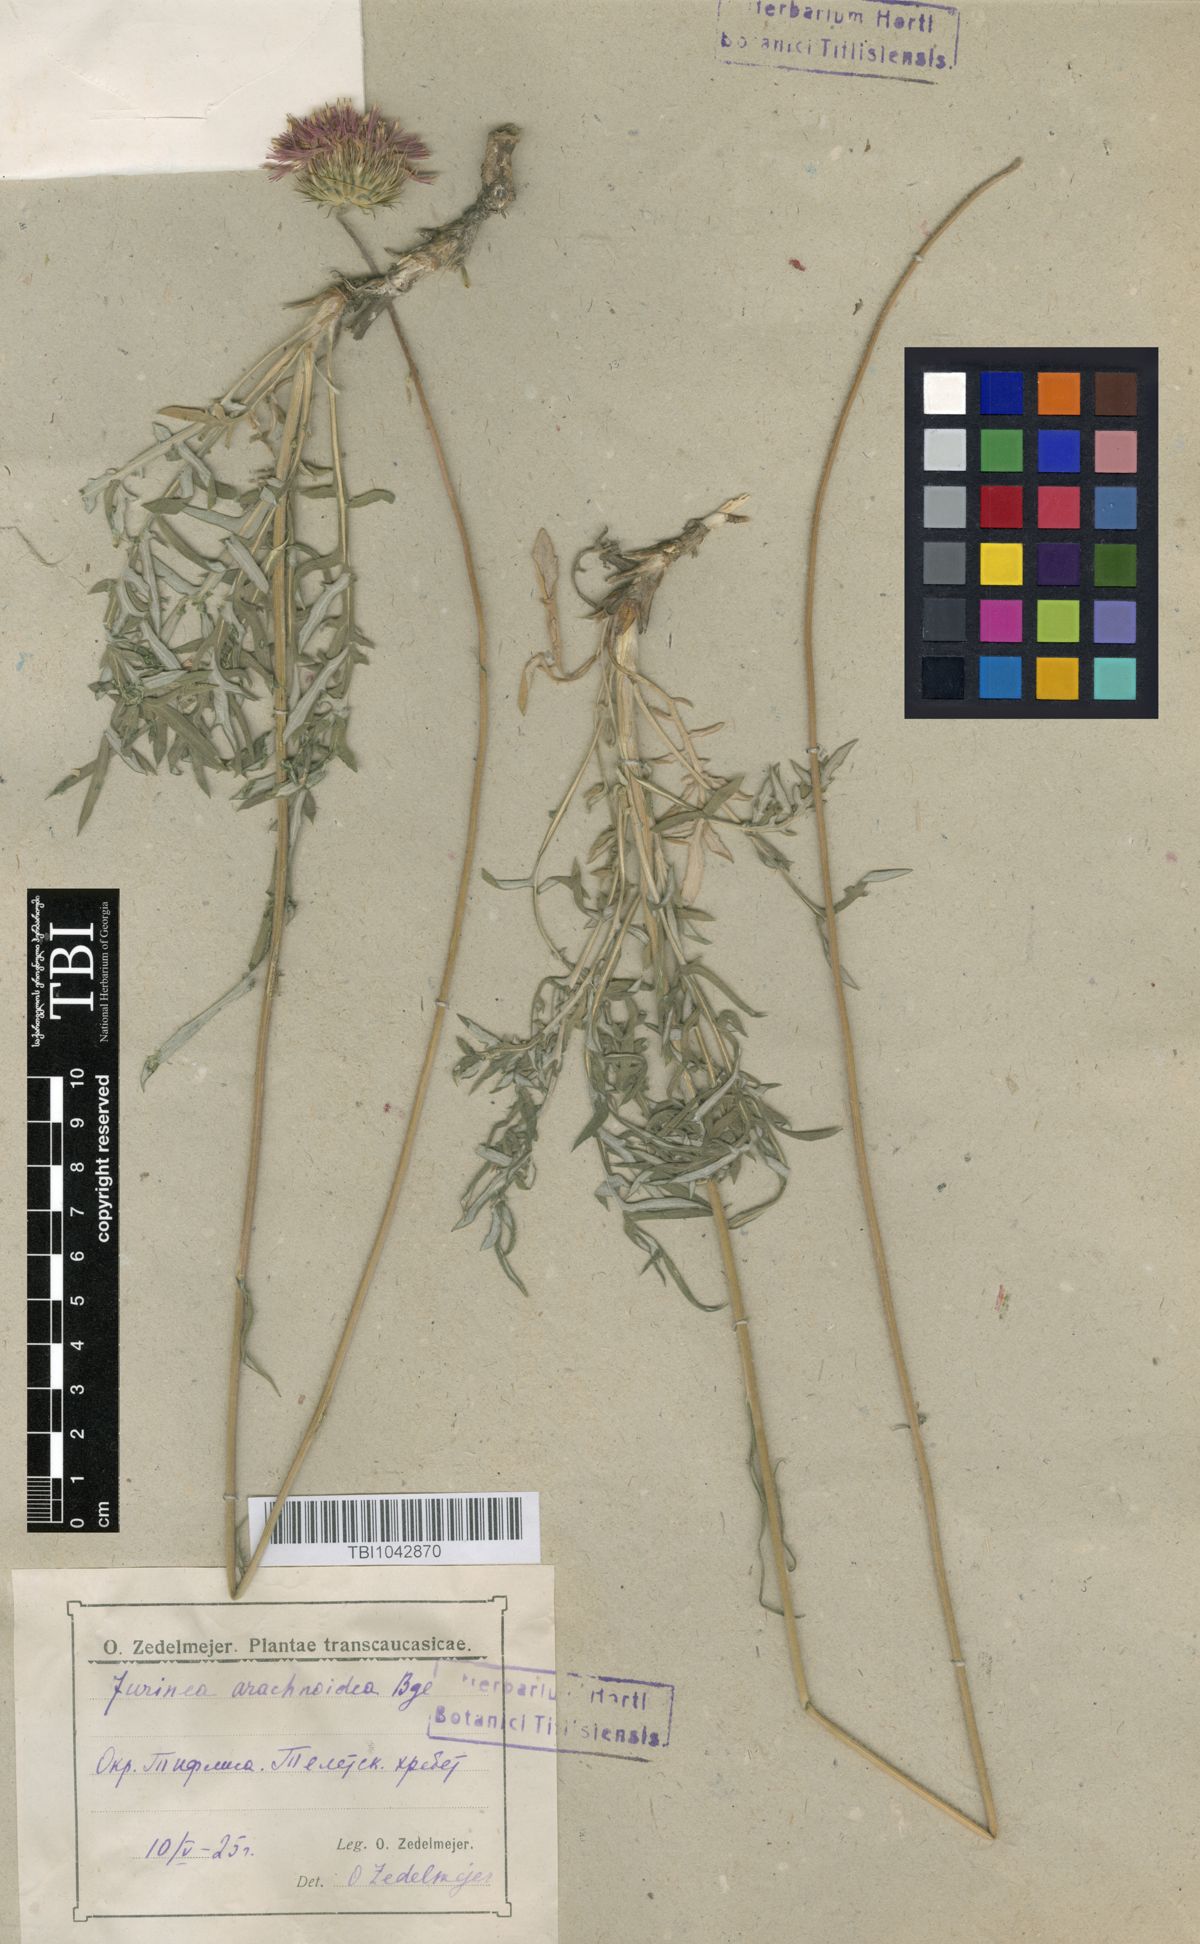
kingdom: Plantae
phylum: Tracheophyta
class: Magnoliopsida
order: Asterales
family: Asteraceae
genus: Jurinea
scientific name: Jurinea blanda
